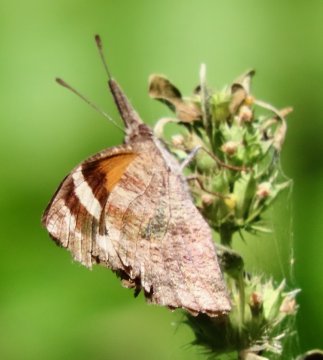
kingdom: Animalia
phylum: Arthropoda
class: Insecta
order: Lepidoptera
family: Nymphalidae
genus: Libytheana
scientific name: Libytheana carinenta
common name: American Snout
